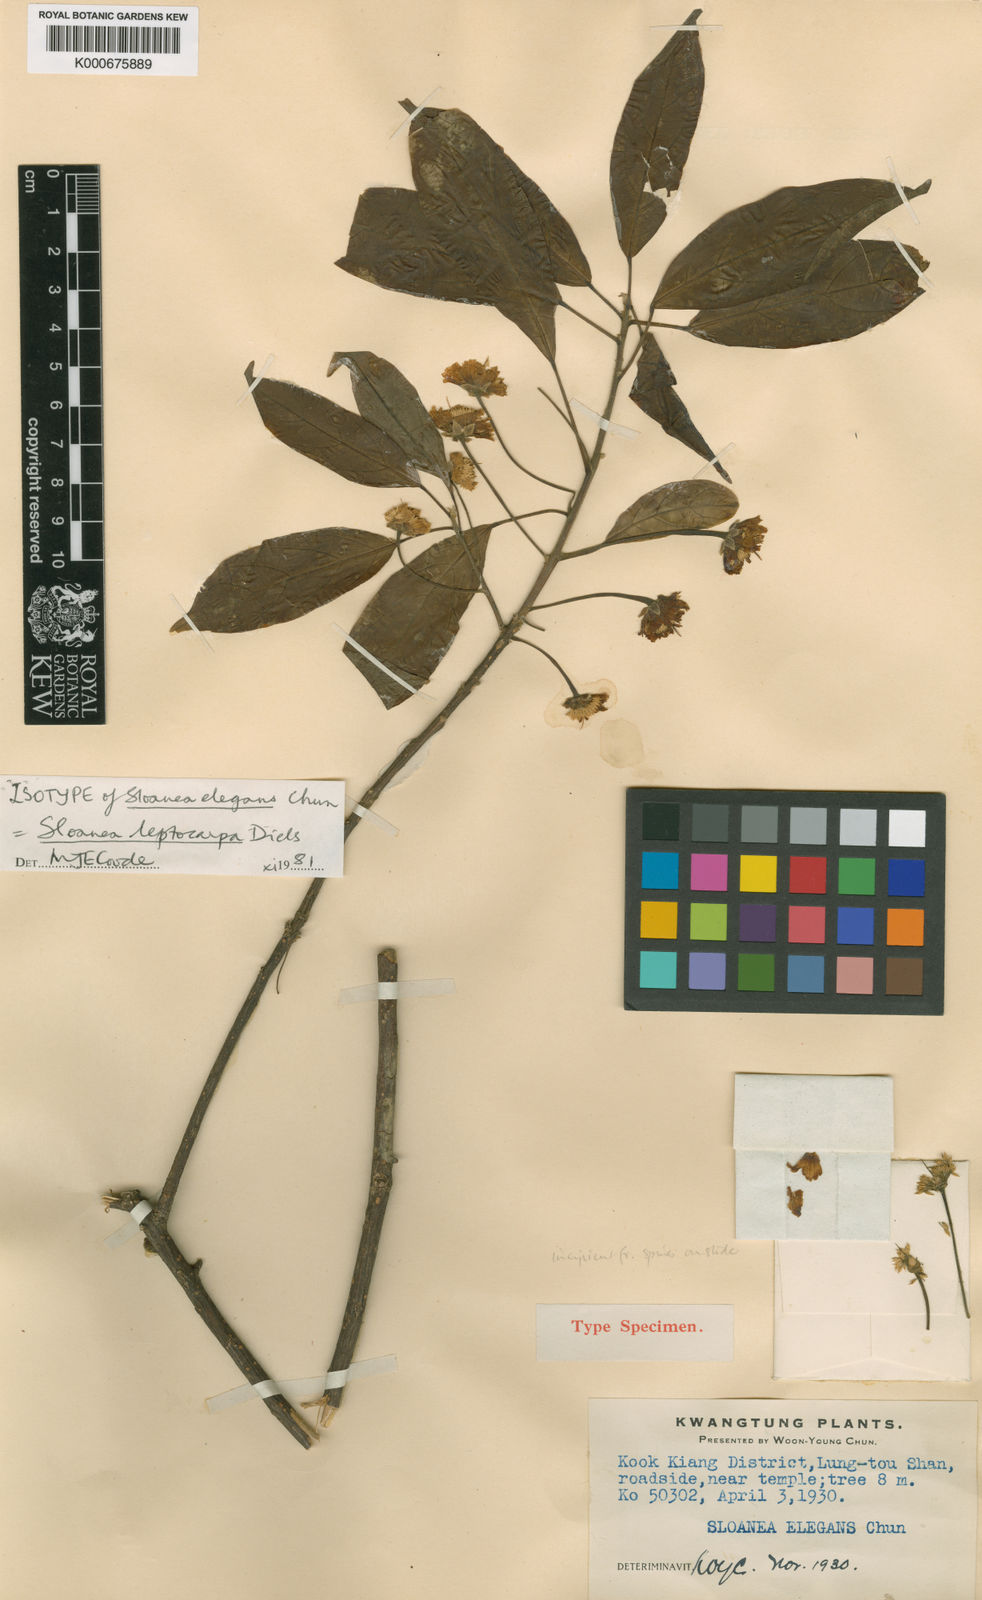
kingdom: Plantae
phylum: Tracheophyta
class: Magnoliopsida
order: Oxalidales
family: Elaeocarpaceae
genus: Sloanea
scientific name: Sloanea leptocarpa
